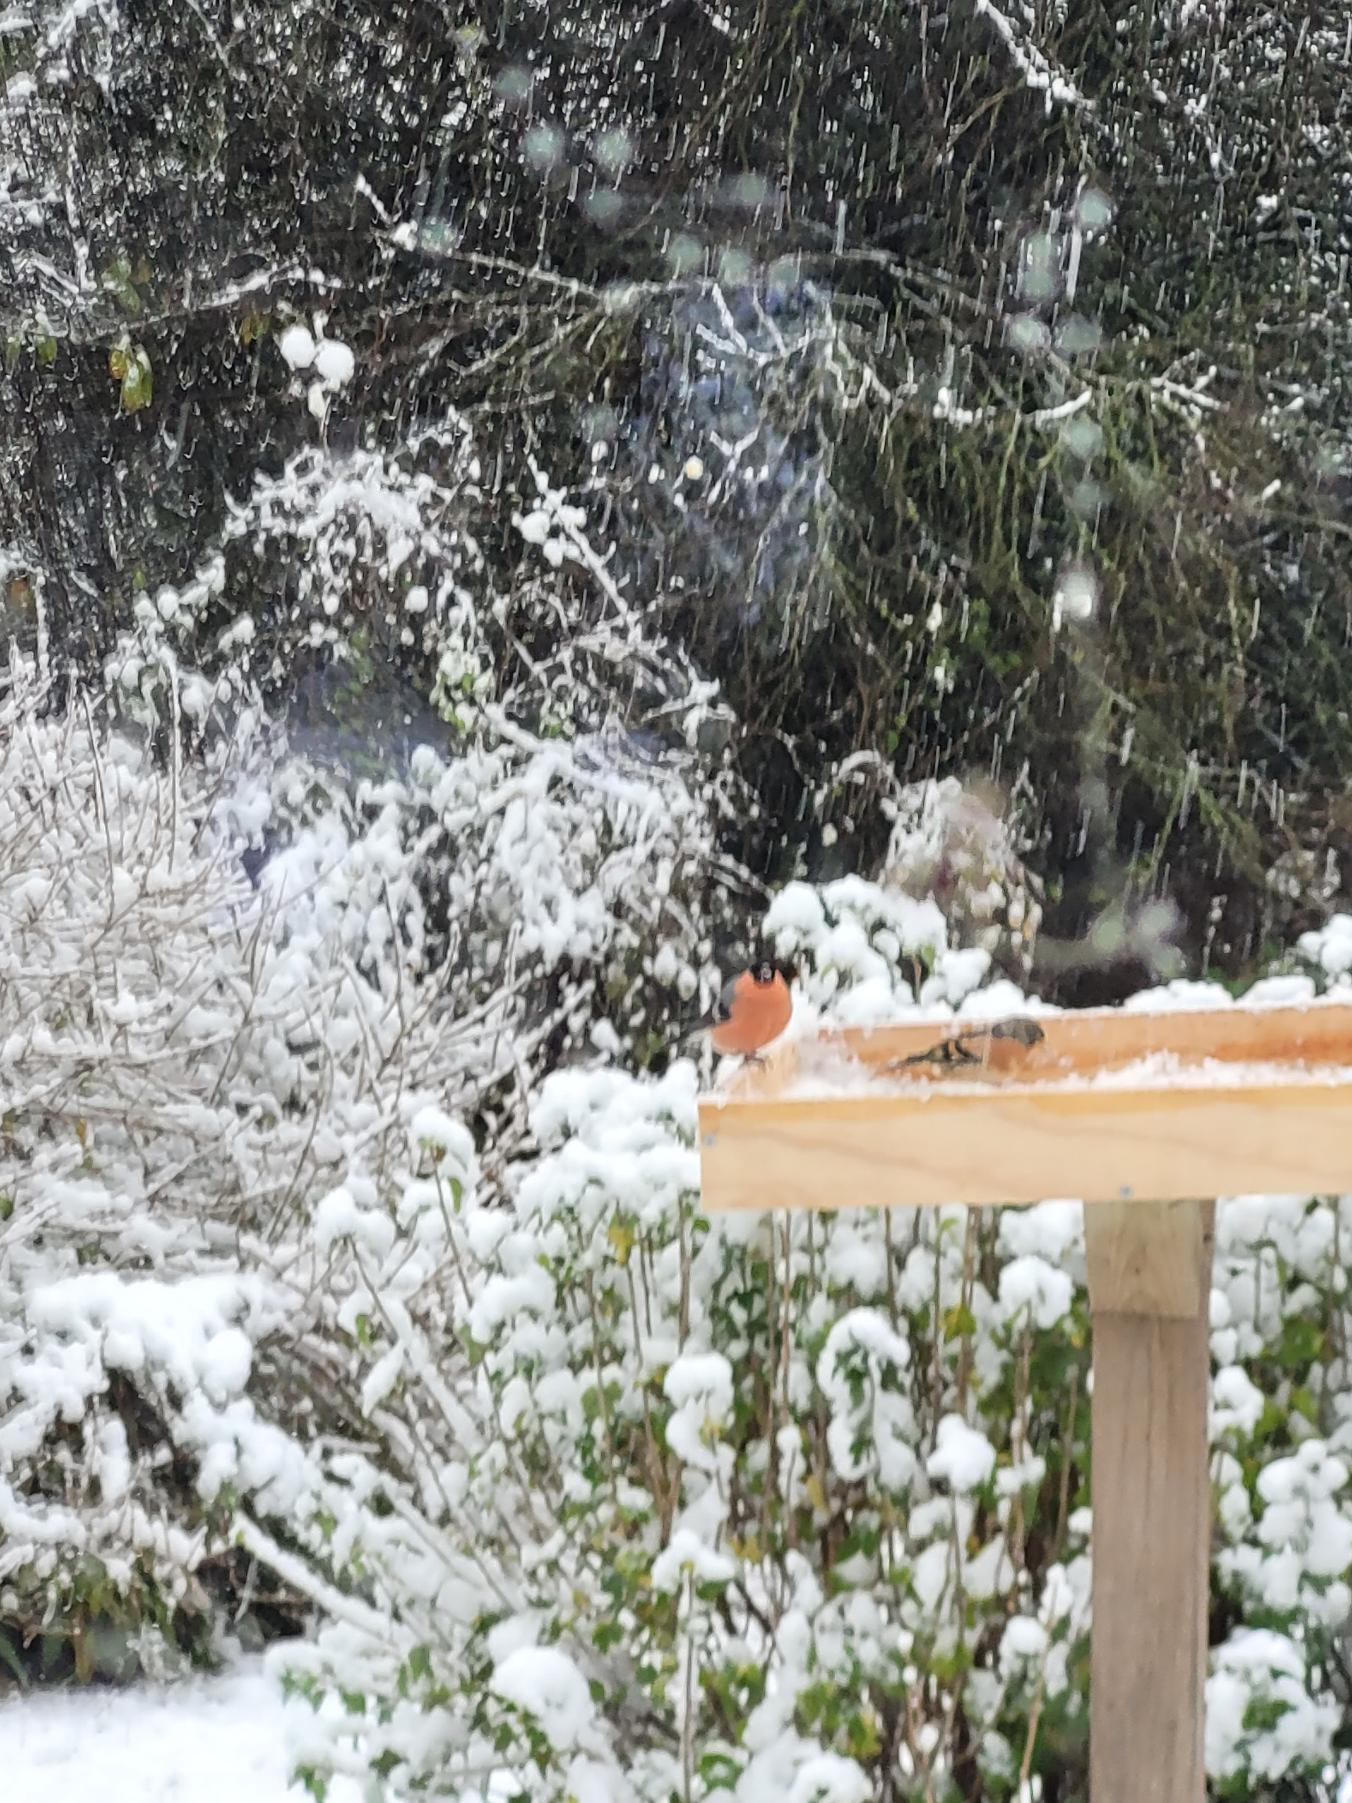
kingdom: Animalia
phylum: Chordata
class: Aves
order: Passeriformes
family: Fringillidae
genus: Pyrrhula
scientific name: Pyrrhula pyrrhula
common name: Dompap
